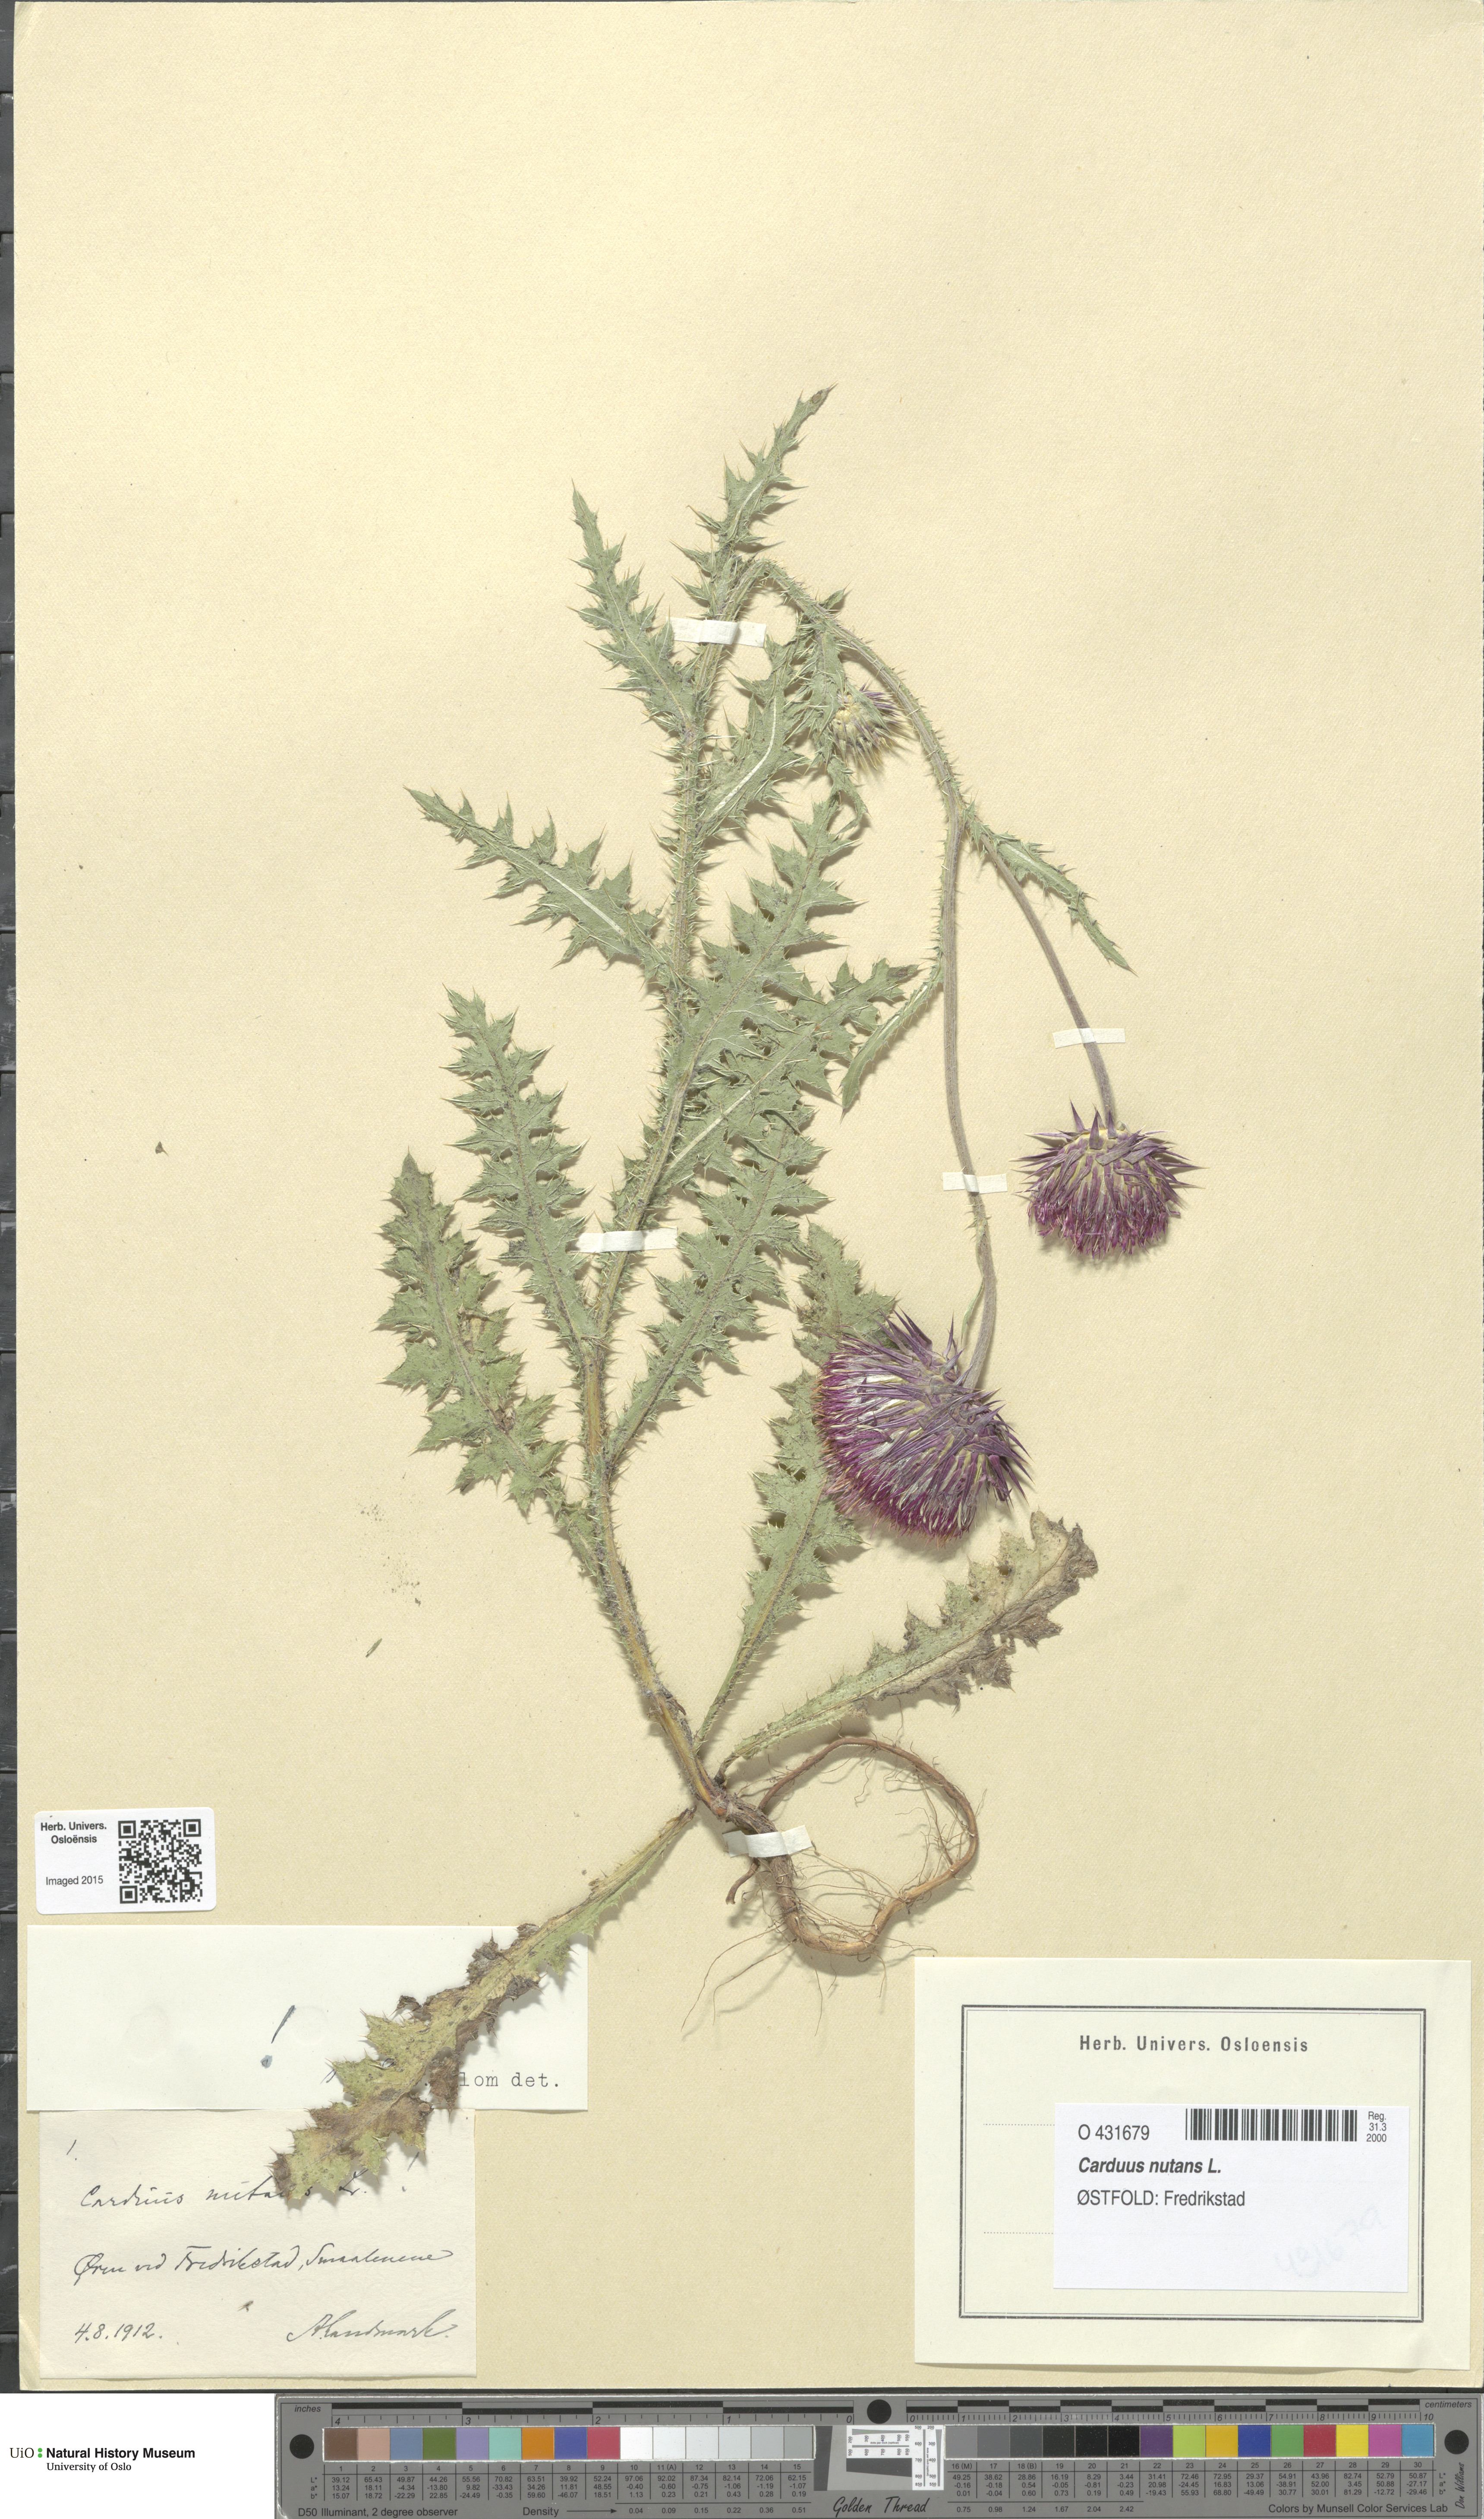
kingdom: Plantae
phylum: Tracheophyta
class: Magnoliopsida
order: Asterales
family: Asteraceae
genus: Carduus
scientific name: Carduus nutans
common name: Musk thistle
